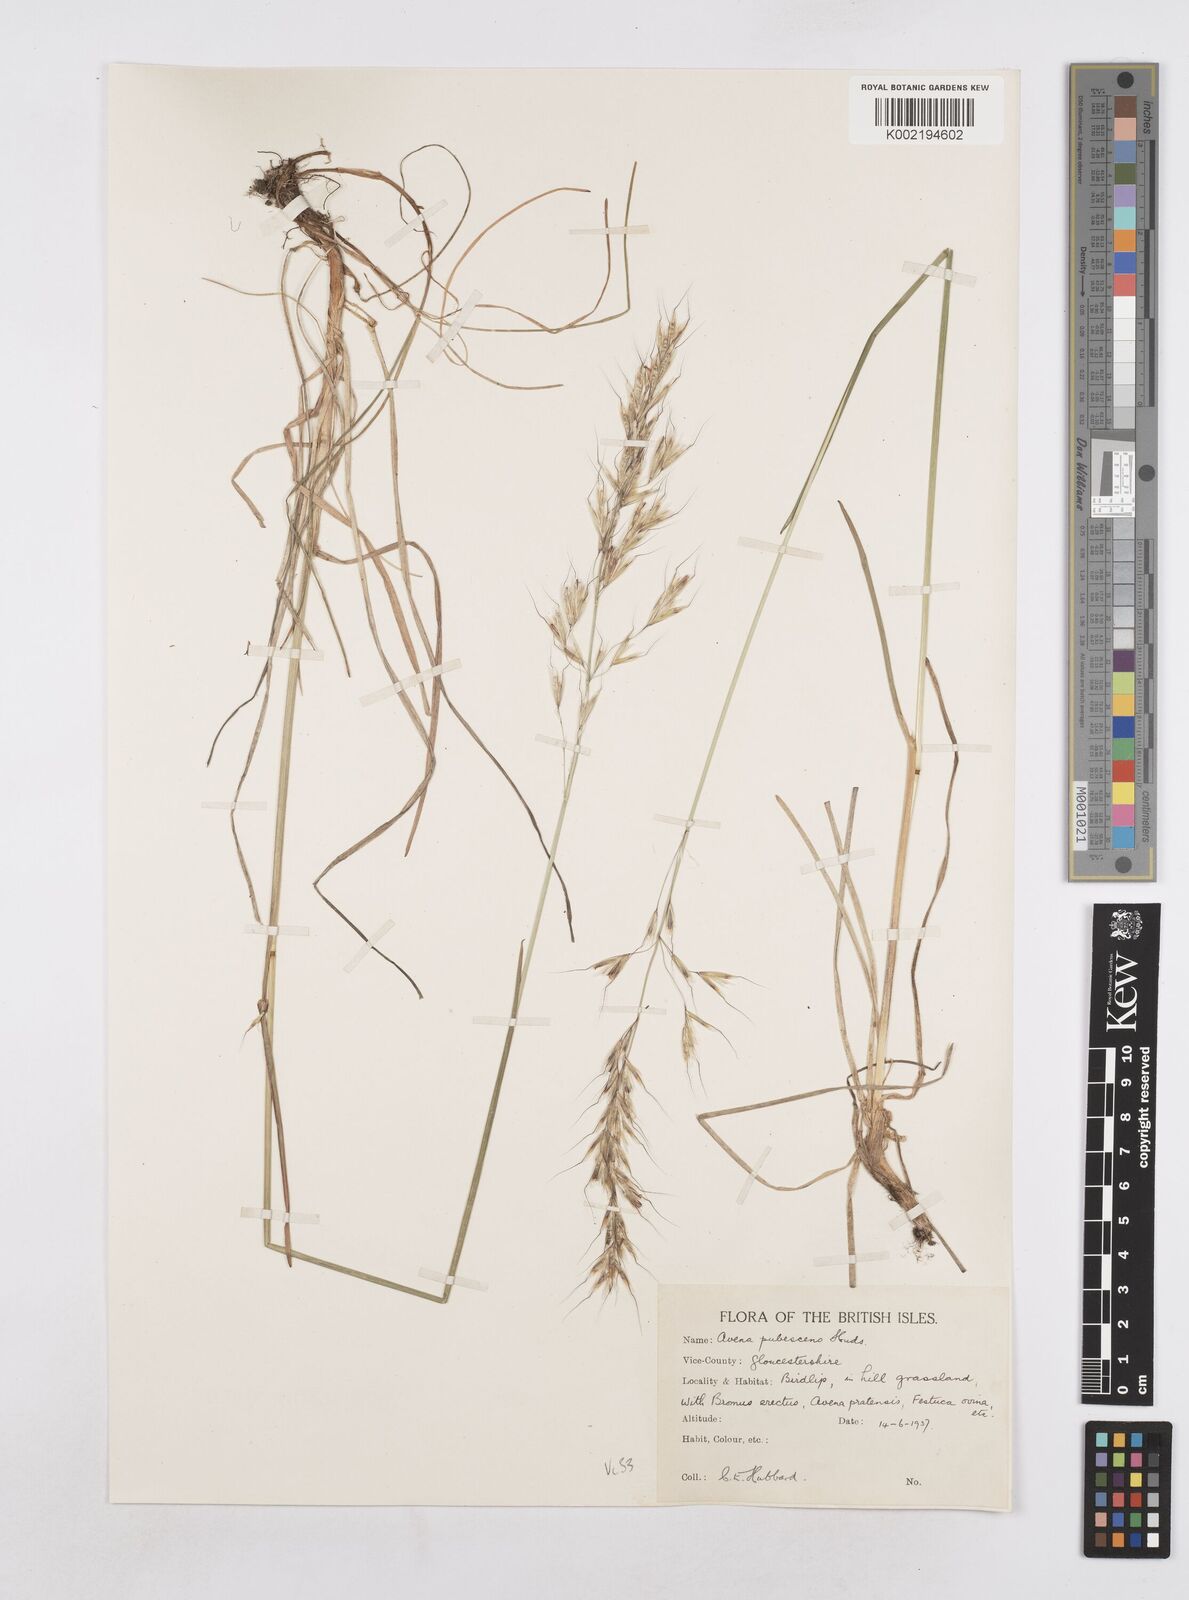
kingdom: Plantae
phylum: Tracheophyta
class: Liliopsida
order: Poales
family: Poaceae
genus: Avenula
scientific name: Avenula pubescens
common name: Downy alpine oatgrass
